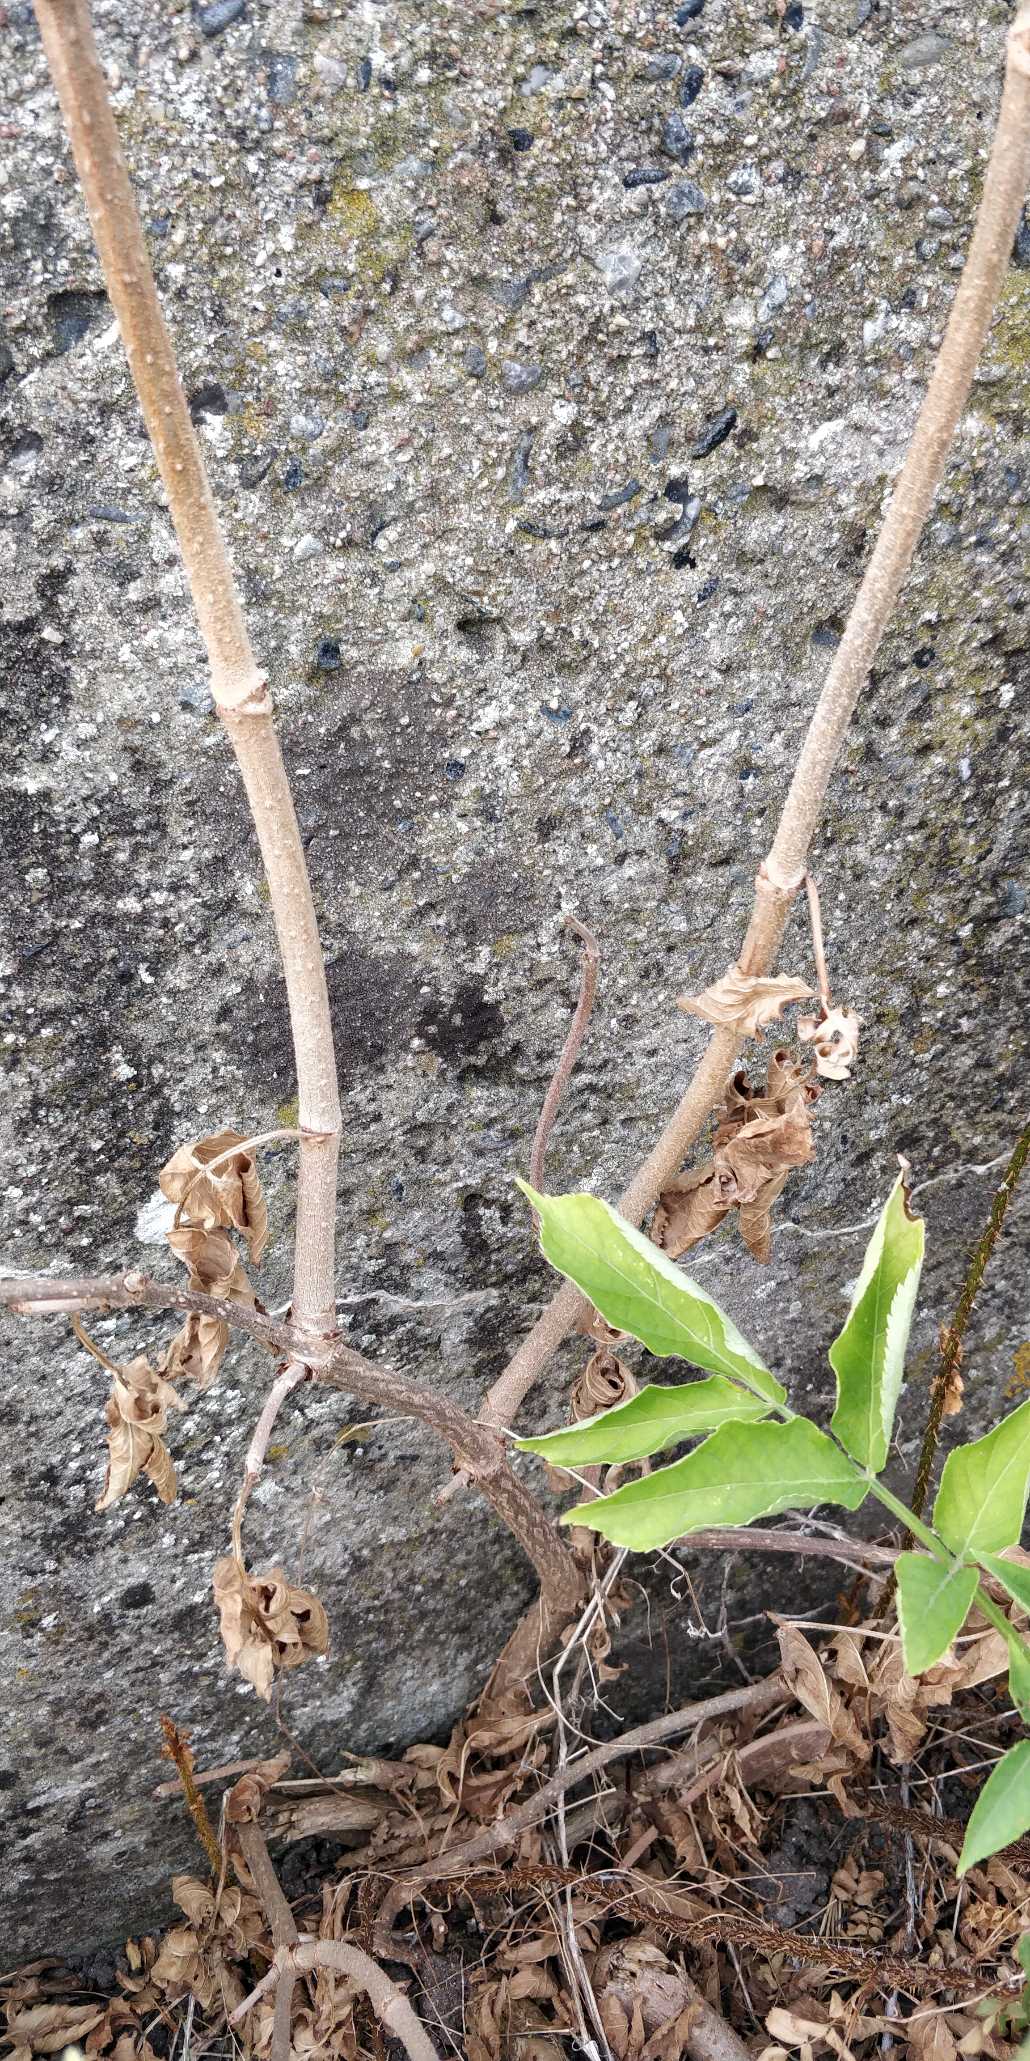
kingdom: Plantae
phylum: Tracheophyta
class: Magnoliopsida
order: Dipsacales
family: Viburnaceae
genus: Sambucus
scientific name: Sambucus nigra
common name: Almindelig hyld
